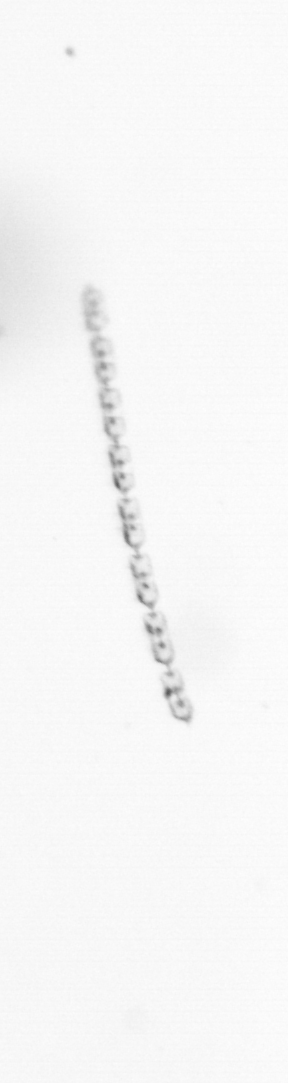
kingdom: Chromista
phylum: Ochrophyta
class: Bacillariophyceae
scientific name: Bacillariophyceae
